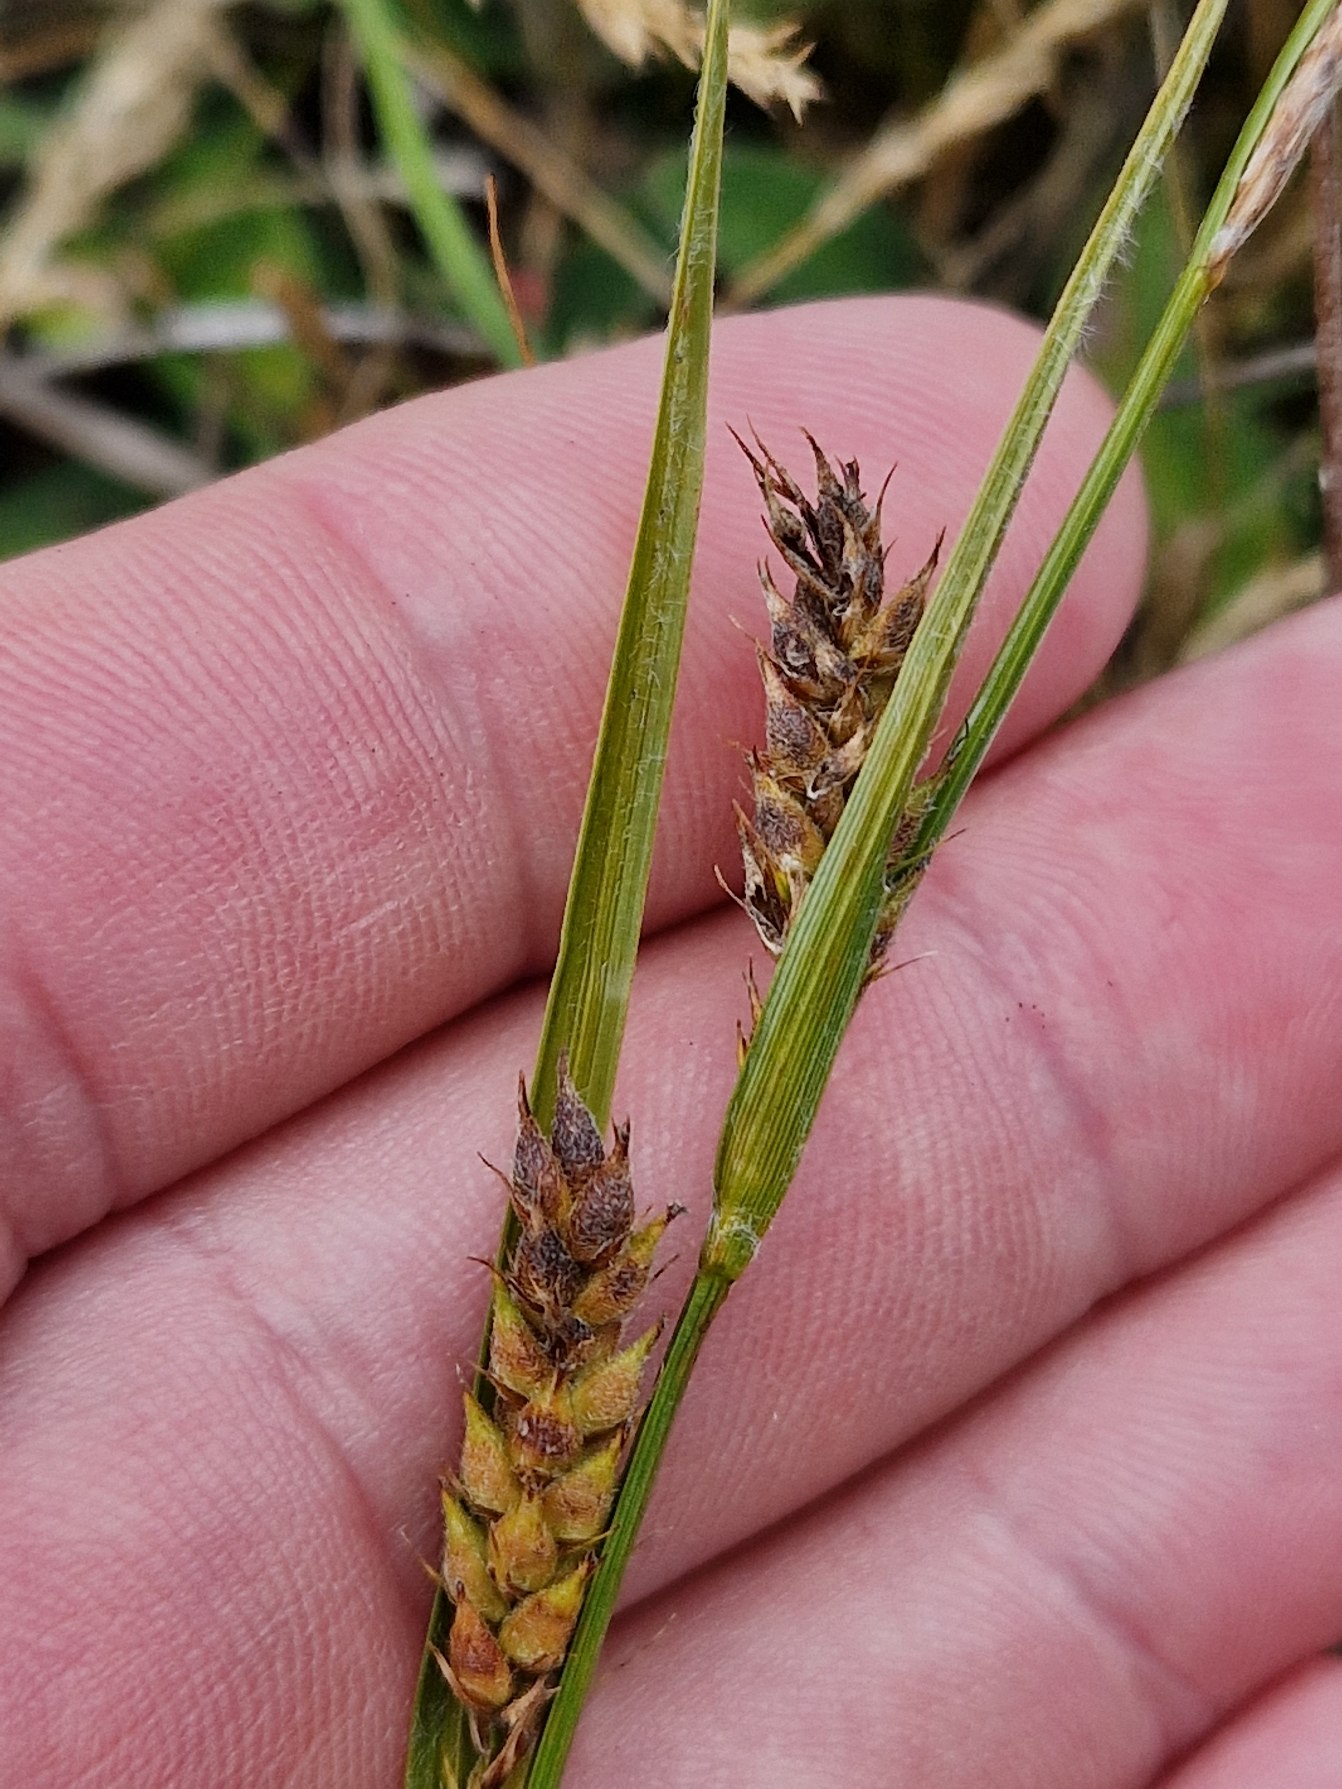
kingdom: Plantae
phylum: Tracheophyta
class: Liliopsida
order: Poales
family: Cyperaceae
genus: Carex
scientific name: Carex hirta
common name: Håret star
